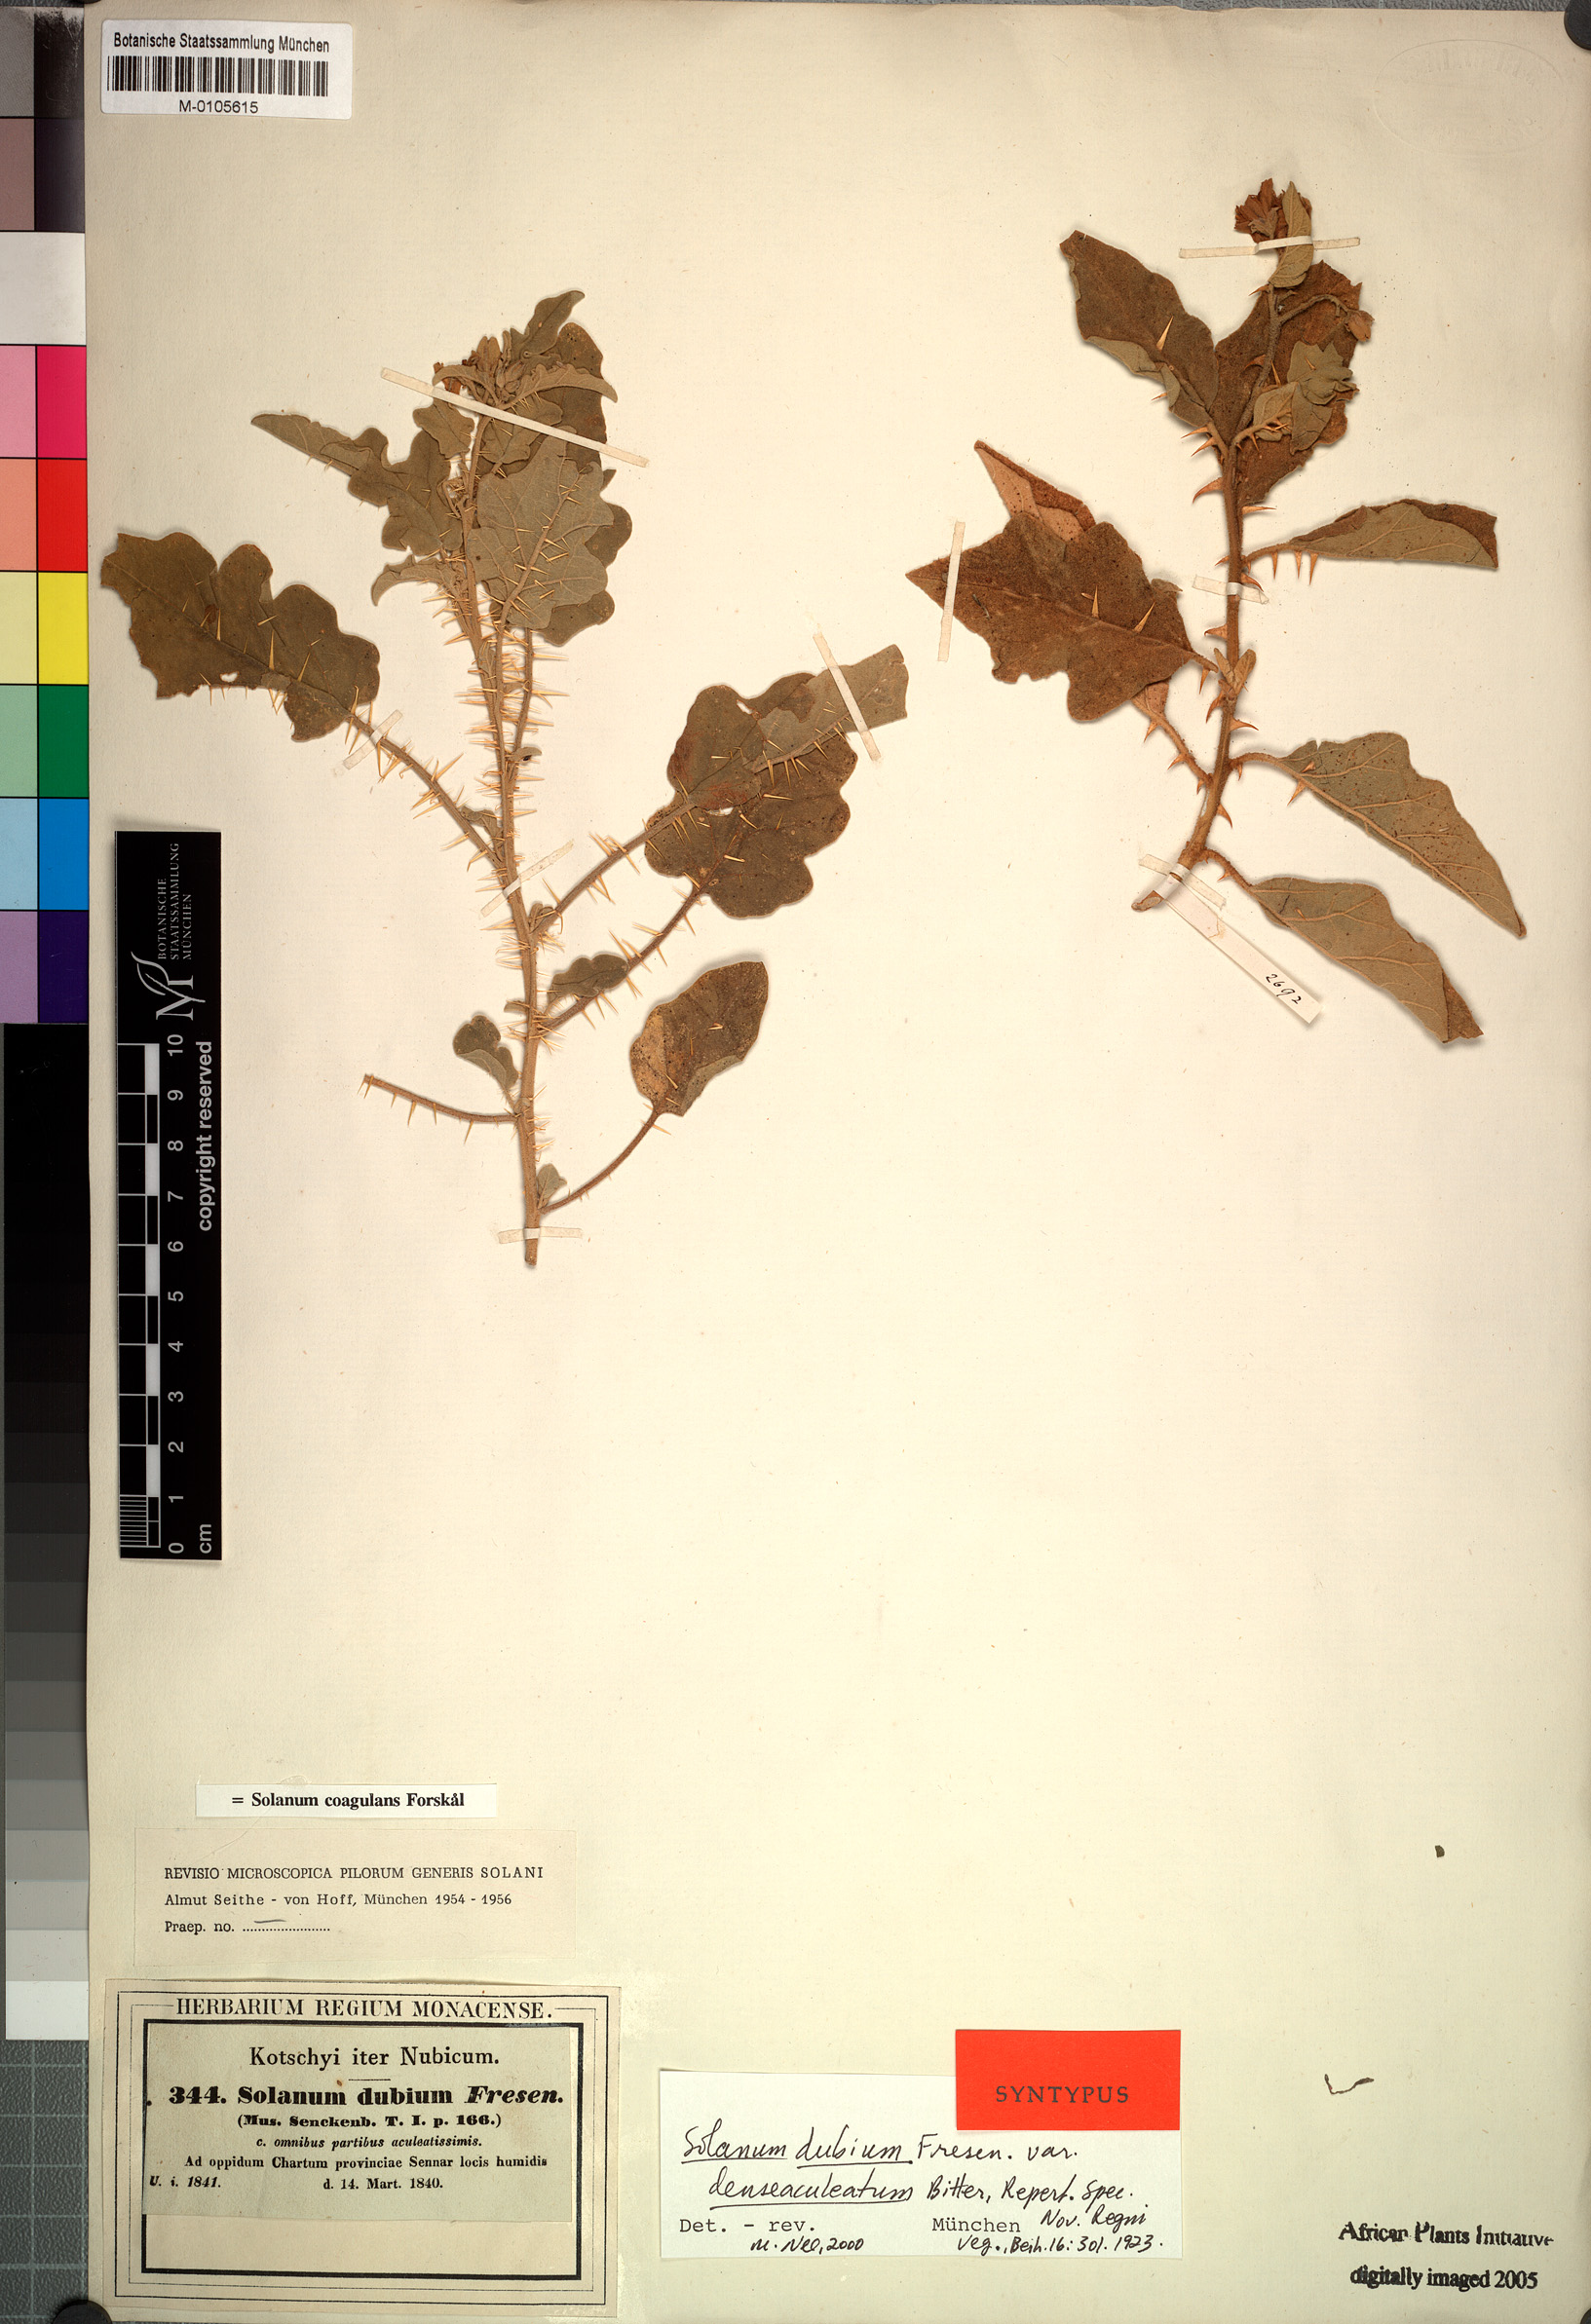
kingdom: Plantae
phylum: Tracheophyta
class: Magnoliopsida
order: Solanales
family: Solanaceae
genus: Solanum
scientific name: Solanum coagulans
